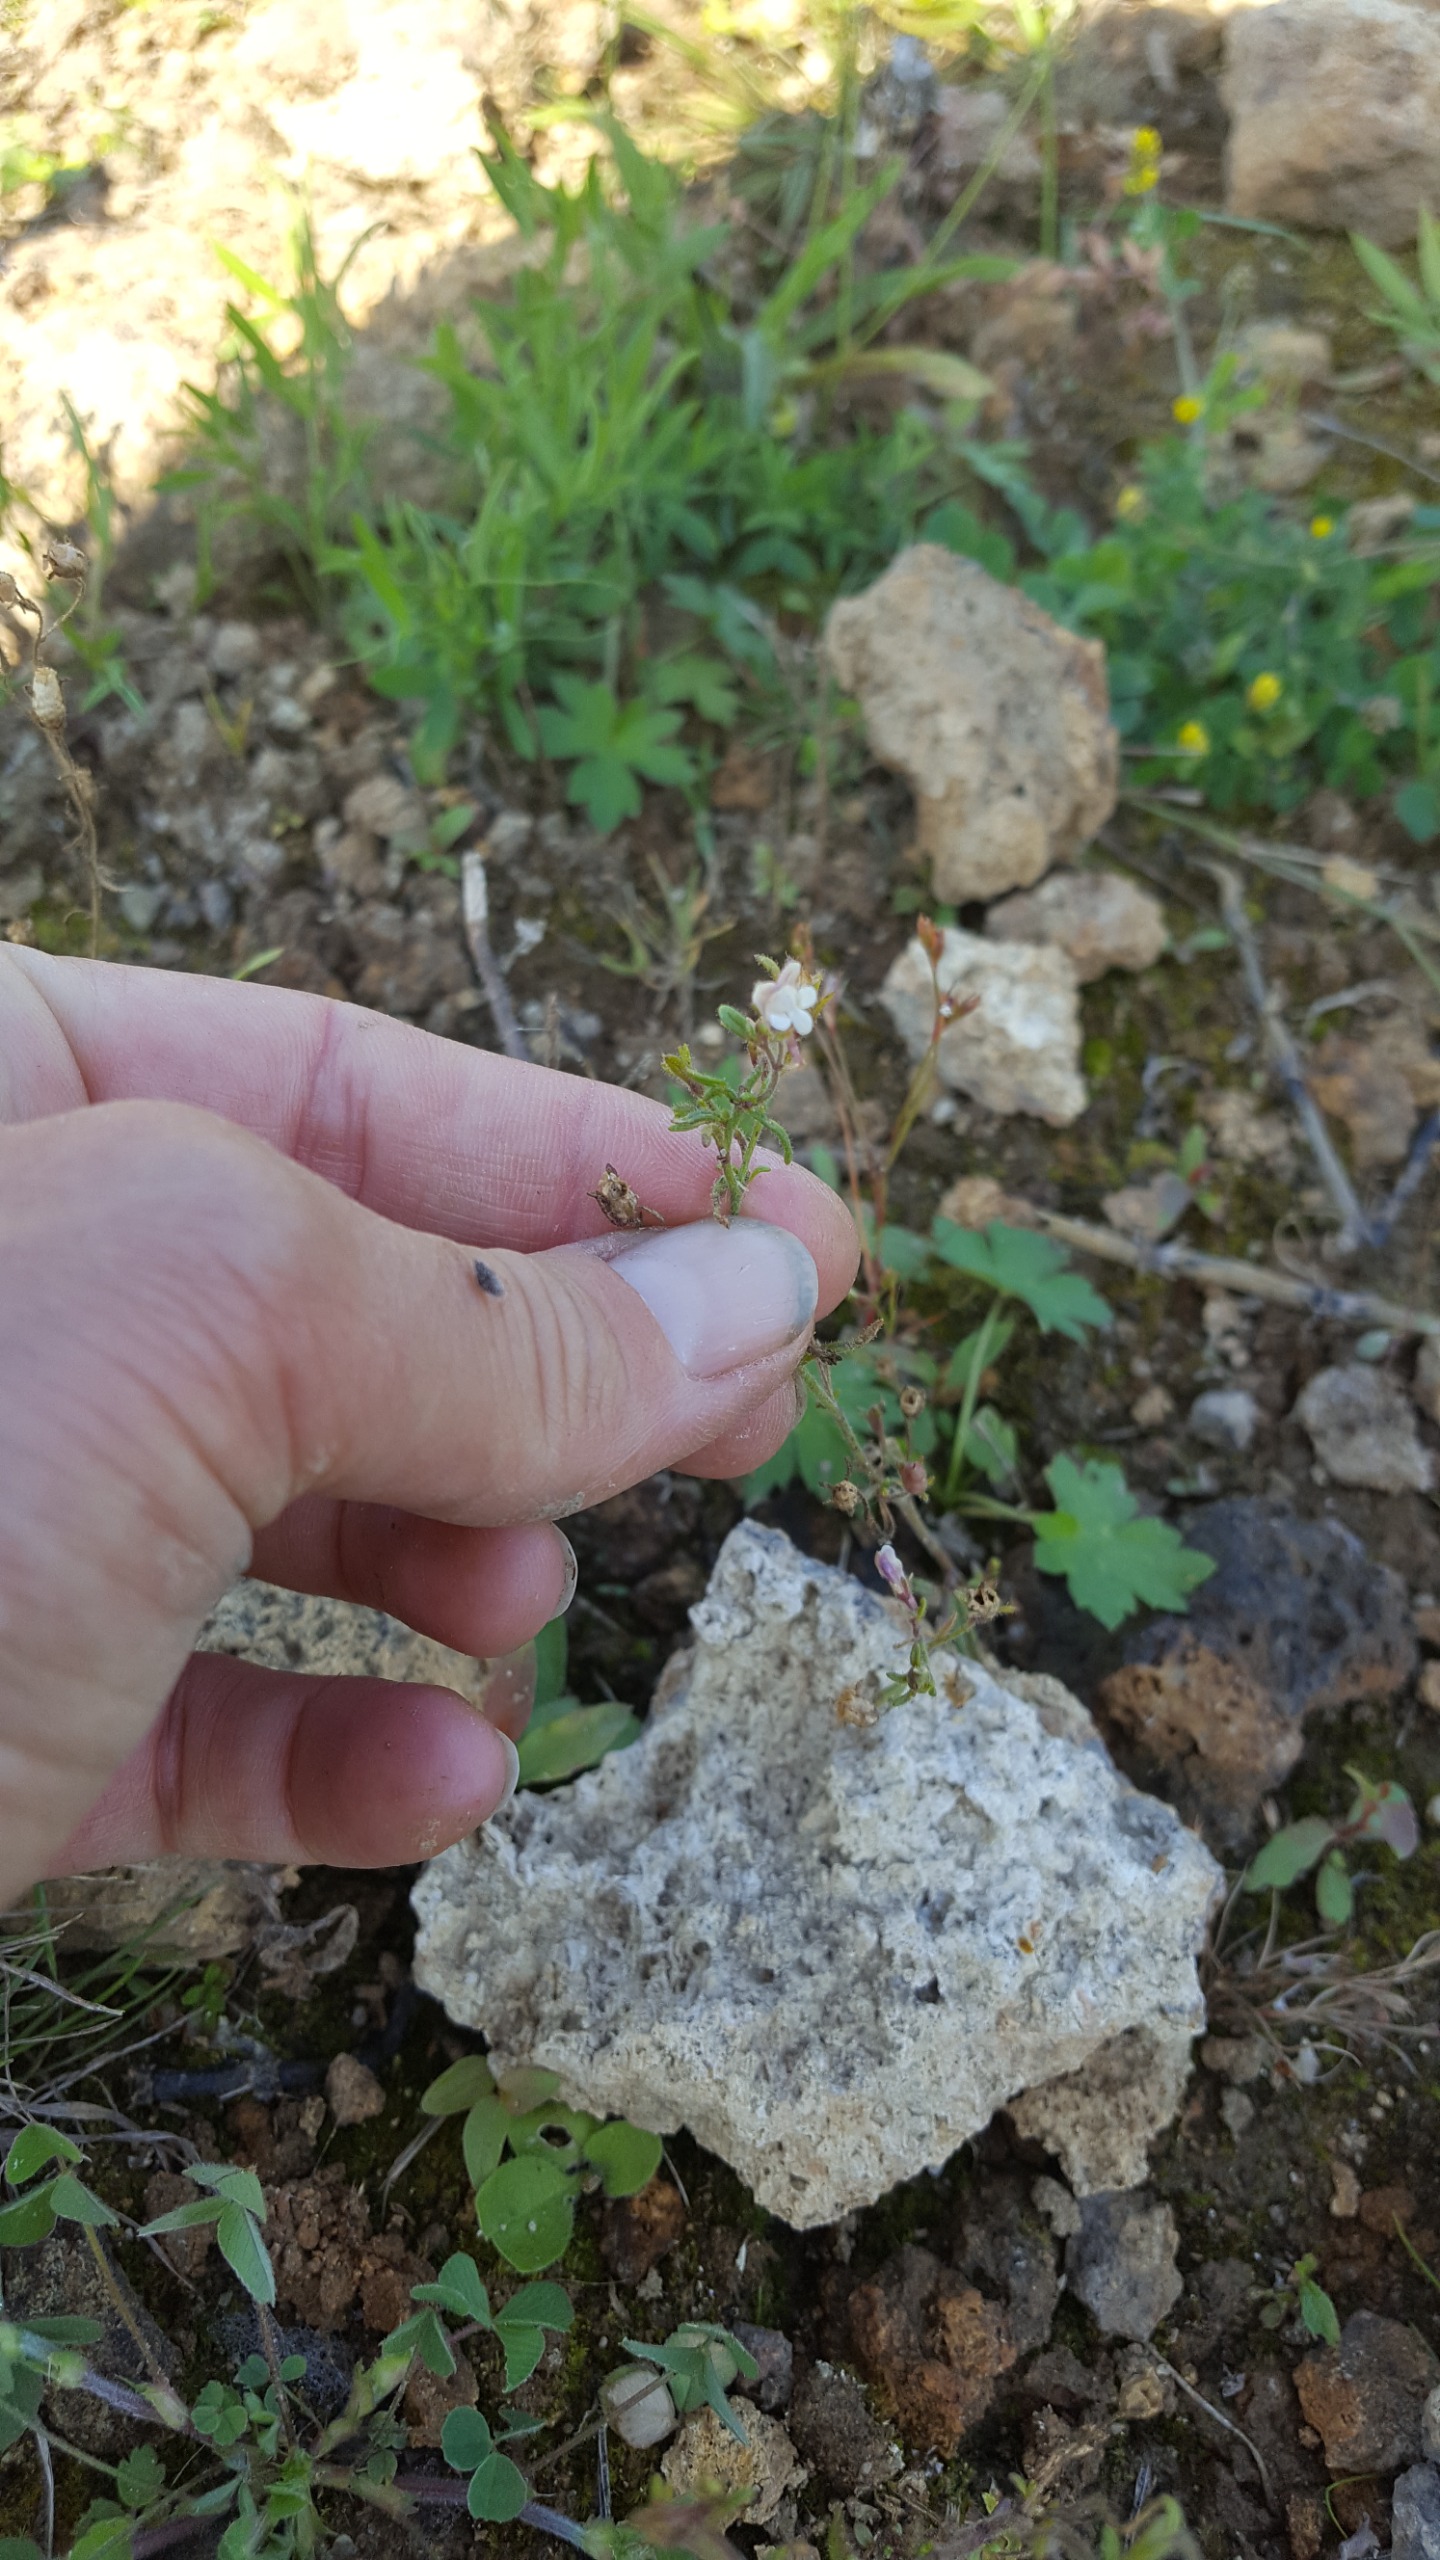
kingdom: Plantae
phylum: Tracheophyta
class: Magnoliopsida
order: Lamiales
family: Plantaginaceae
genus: Chaenorhinum
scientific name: Chaenorhinum minus
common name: Liden torskemund
